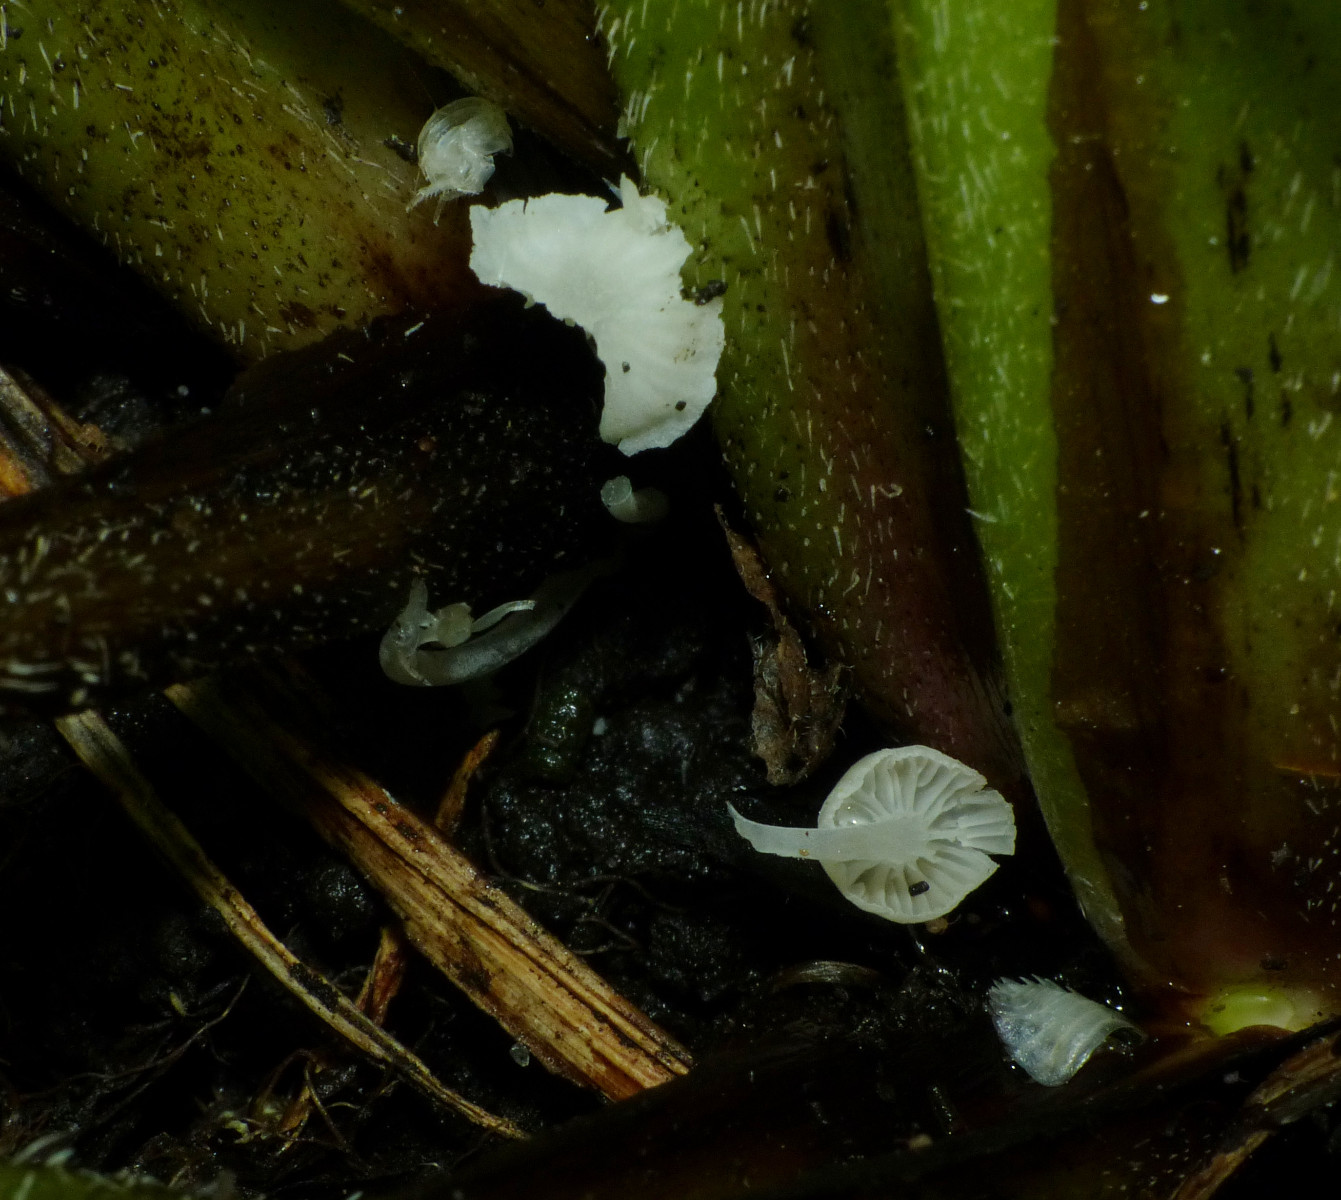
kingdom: Fungi
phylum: Basidiomycota
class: Agaricomycetes
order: Agaricales
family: Mycenaceae
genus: Hemimycena
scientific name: Hemimycena candida
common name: kulsukker-huesvamp
